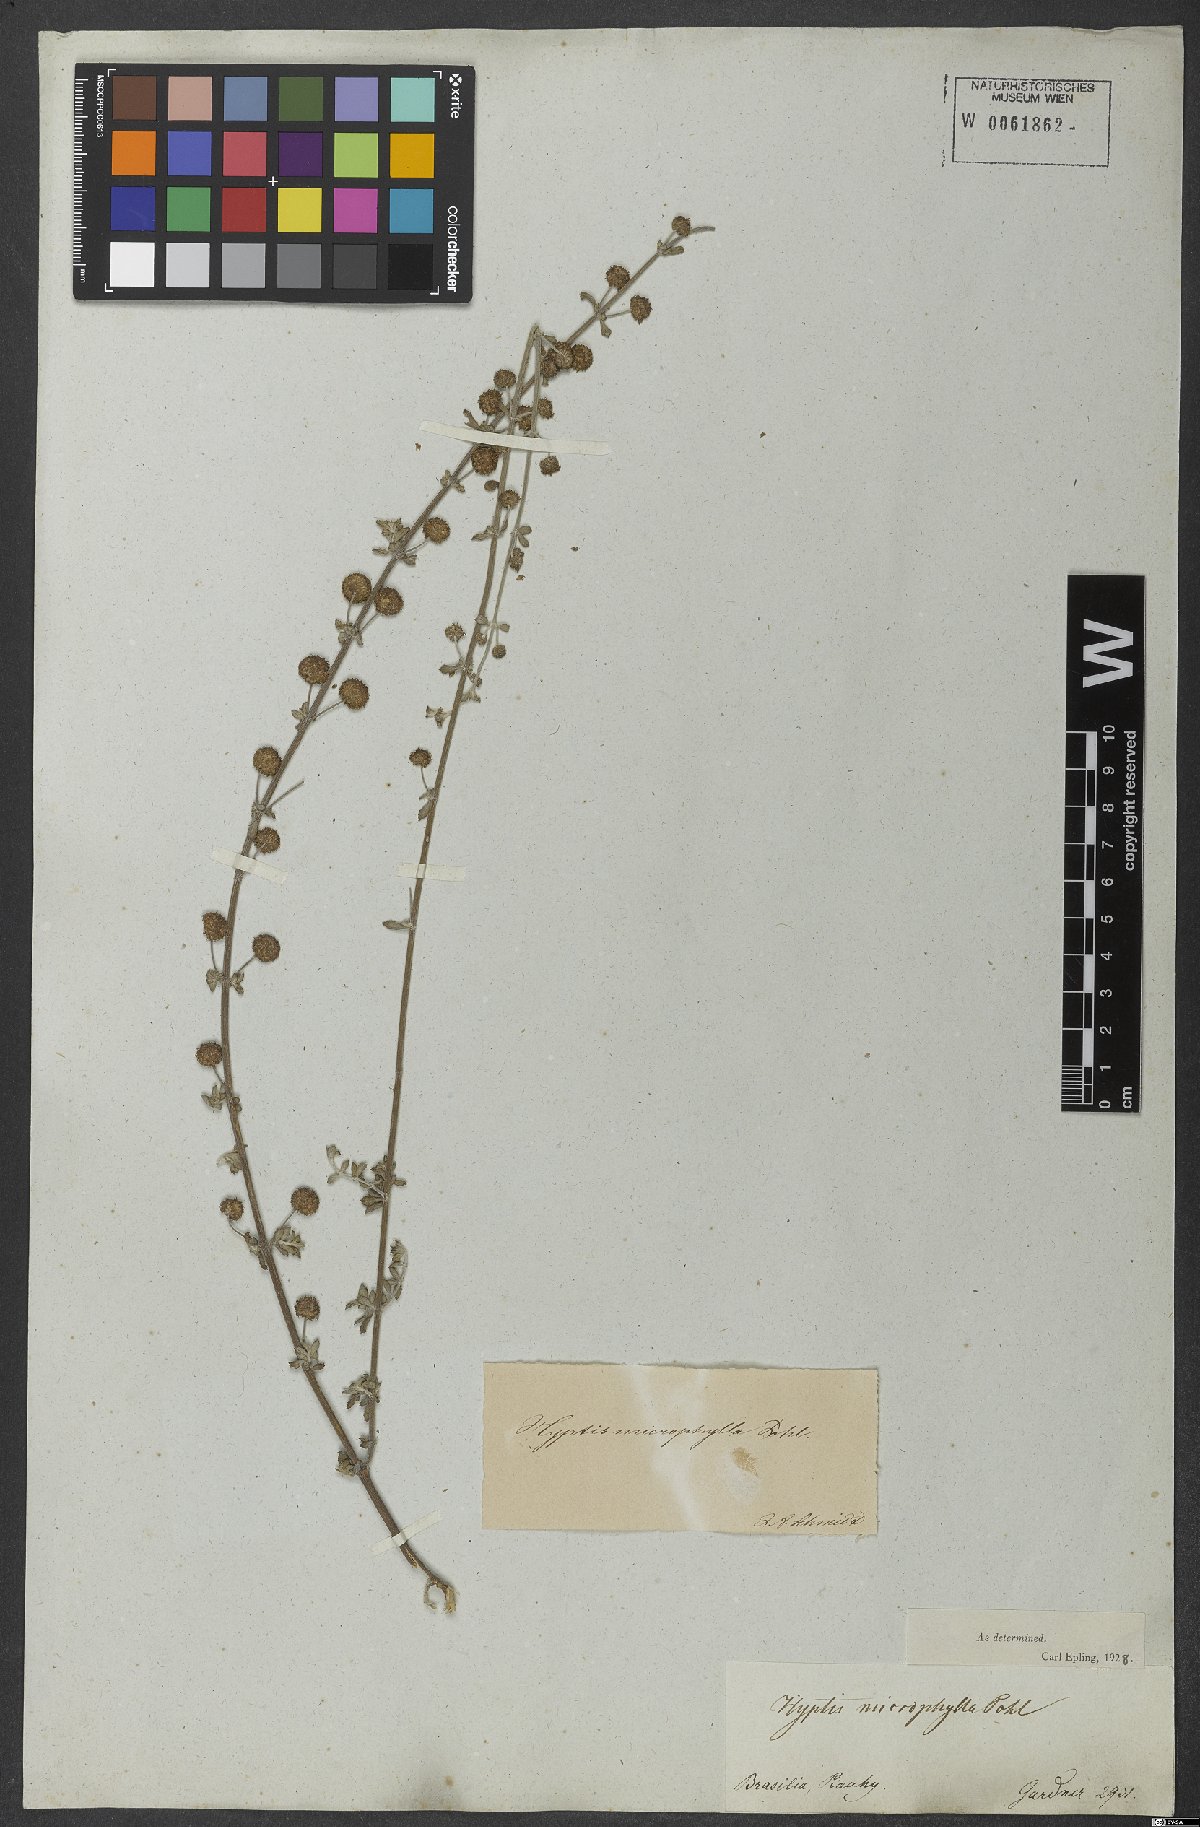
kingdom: Plantae
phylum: Tracheophyta
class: Magnoliopsida
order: Lamiales
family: Lamiaceae
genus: Hyptis
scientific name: Hyptis microphylla
